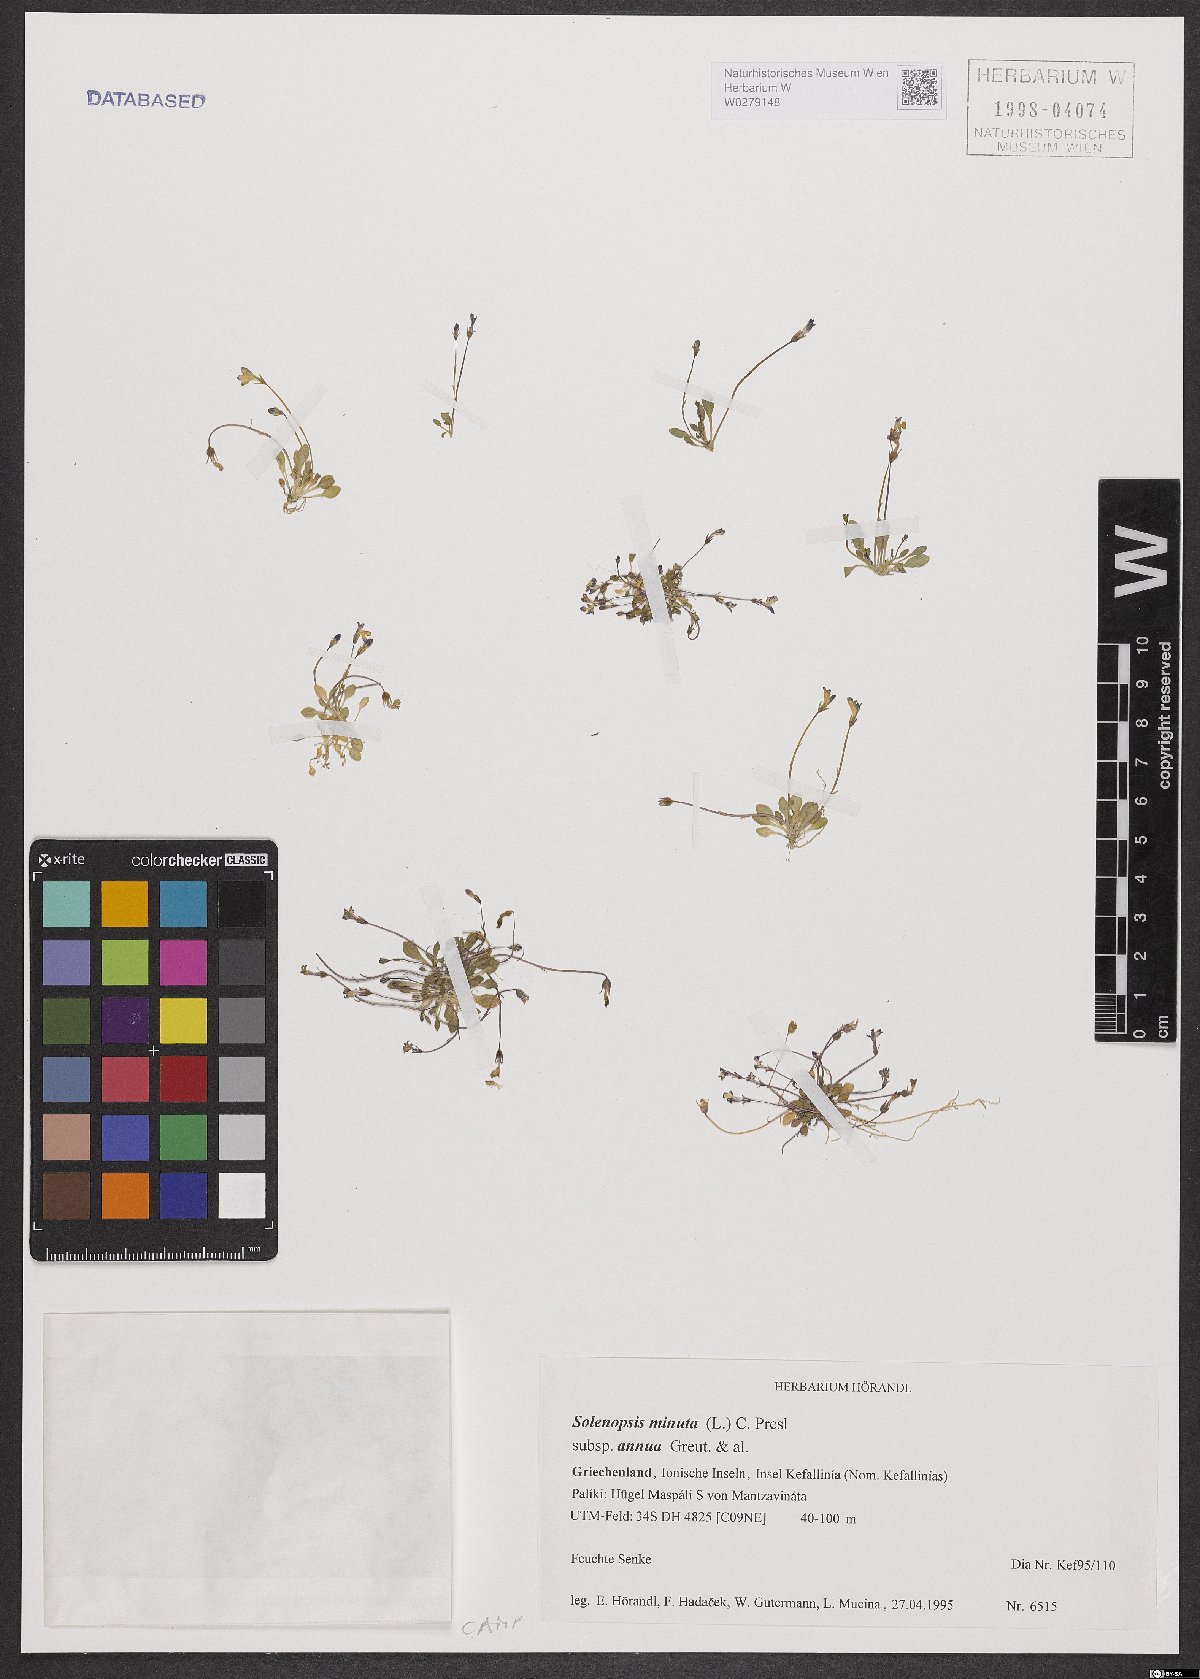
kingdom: Plantae
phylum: Tracheophyta
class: Magnoliopsida
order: Asterales
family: Campanulaceae
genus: Solenopsis
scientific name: Solenopsis annua
